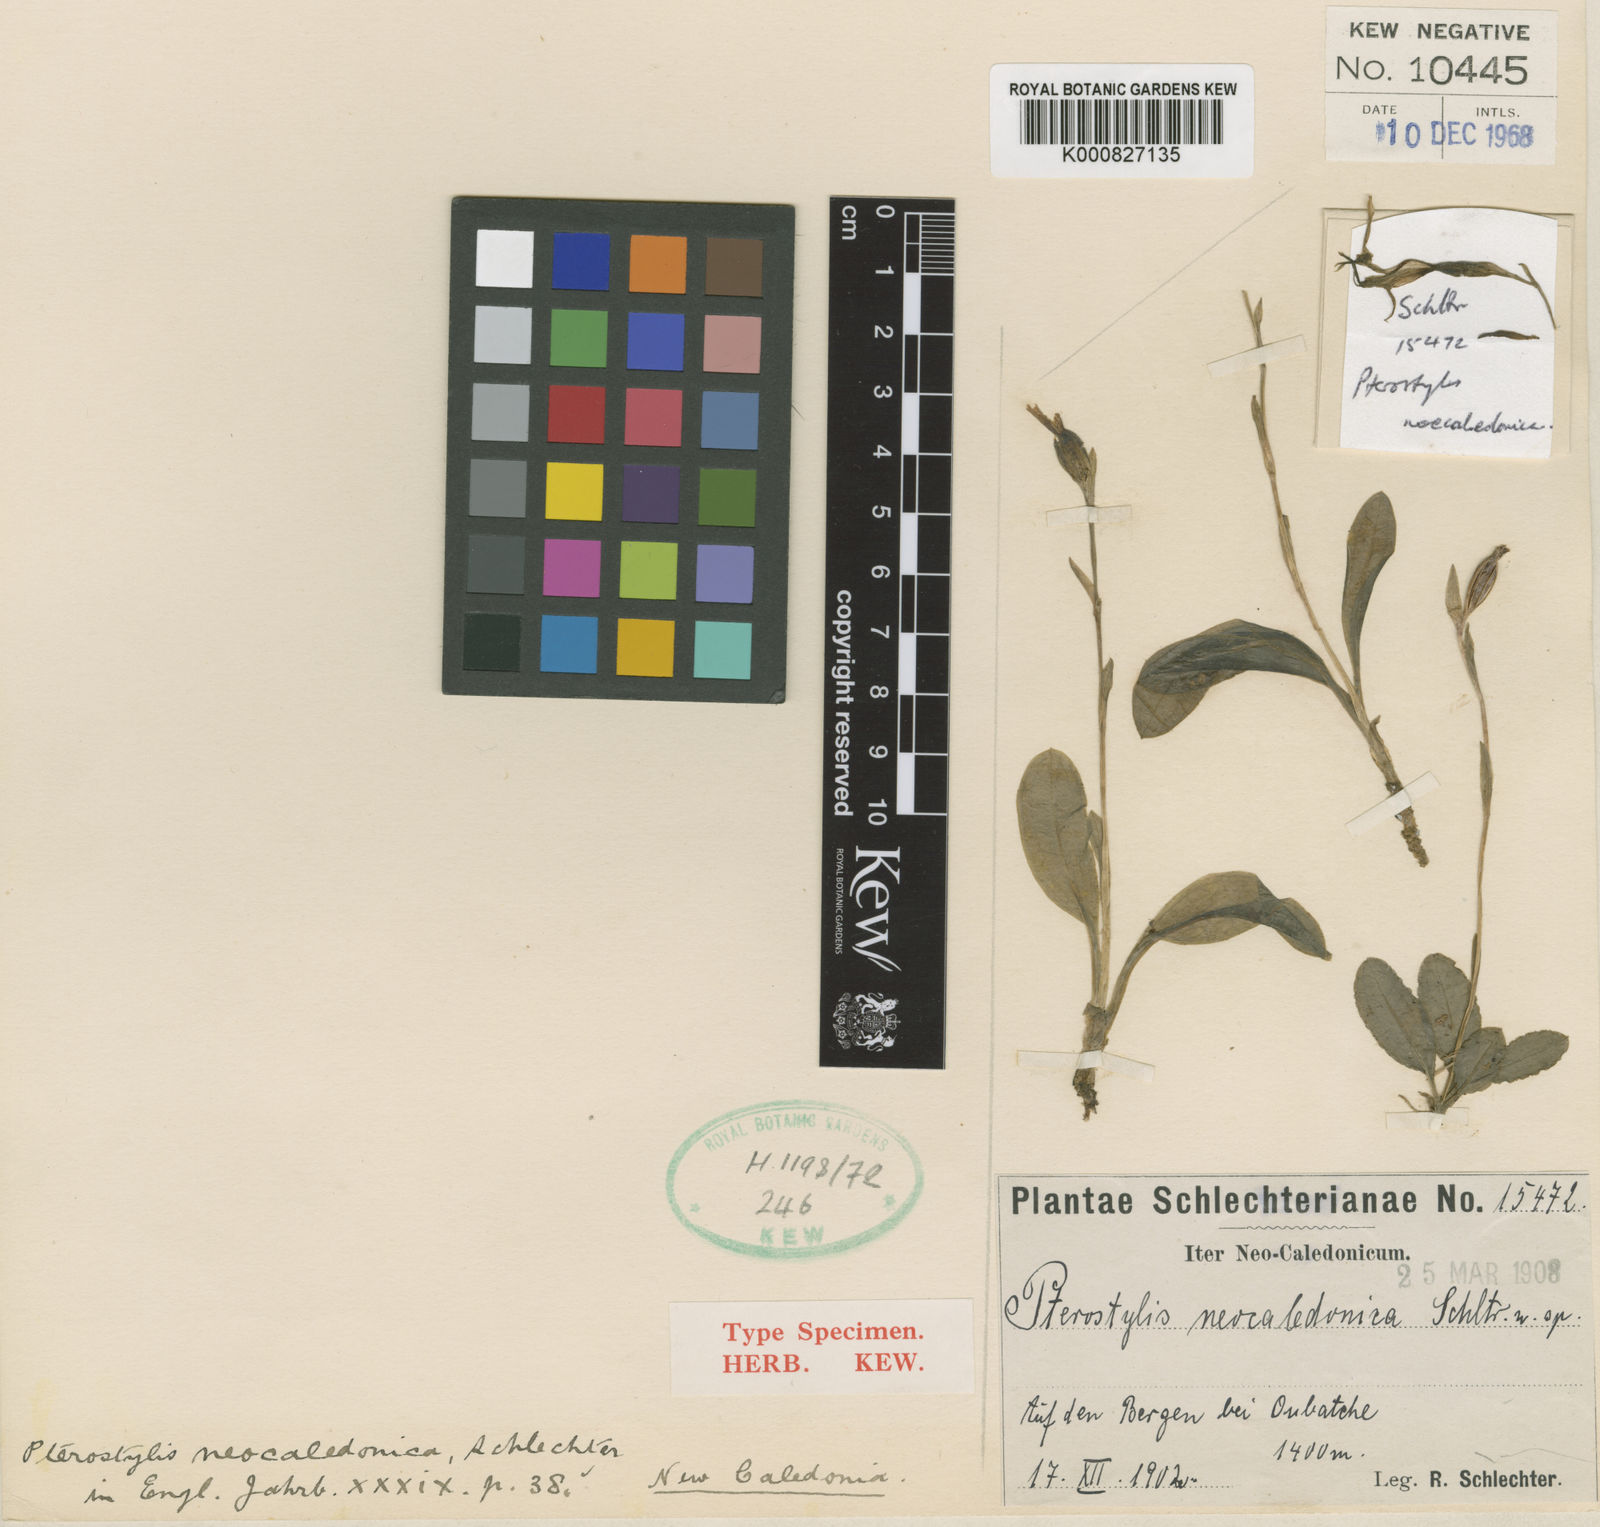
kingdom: Plantae
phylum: Tracheophyta
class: Liliopsida
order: Asparagales
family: Orchidaceae
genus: Pterostylis
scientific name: Pterostylis curta
